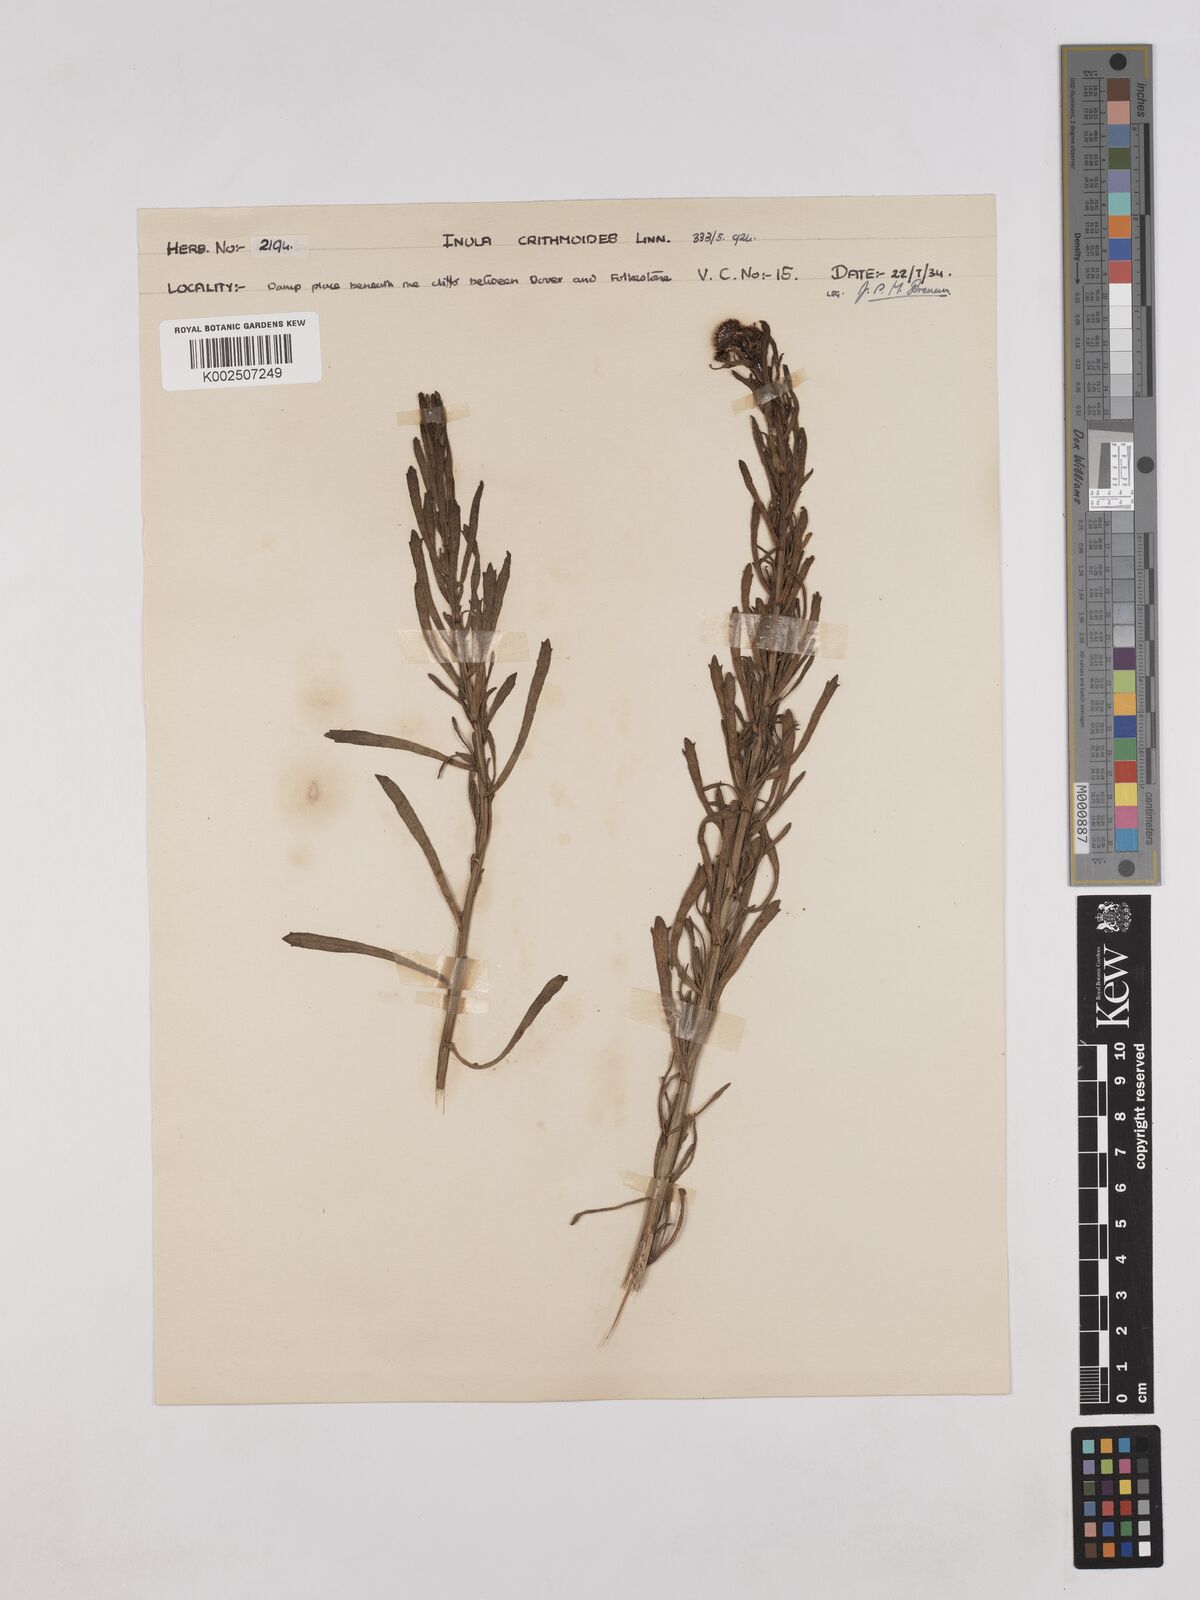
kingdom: Plantae
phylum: Tracheophyta
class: Magnoliopsida
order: Asterales
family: Asteraceae
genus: Limbarda
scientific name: Limbarda crithmoides
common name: Golden samphire
